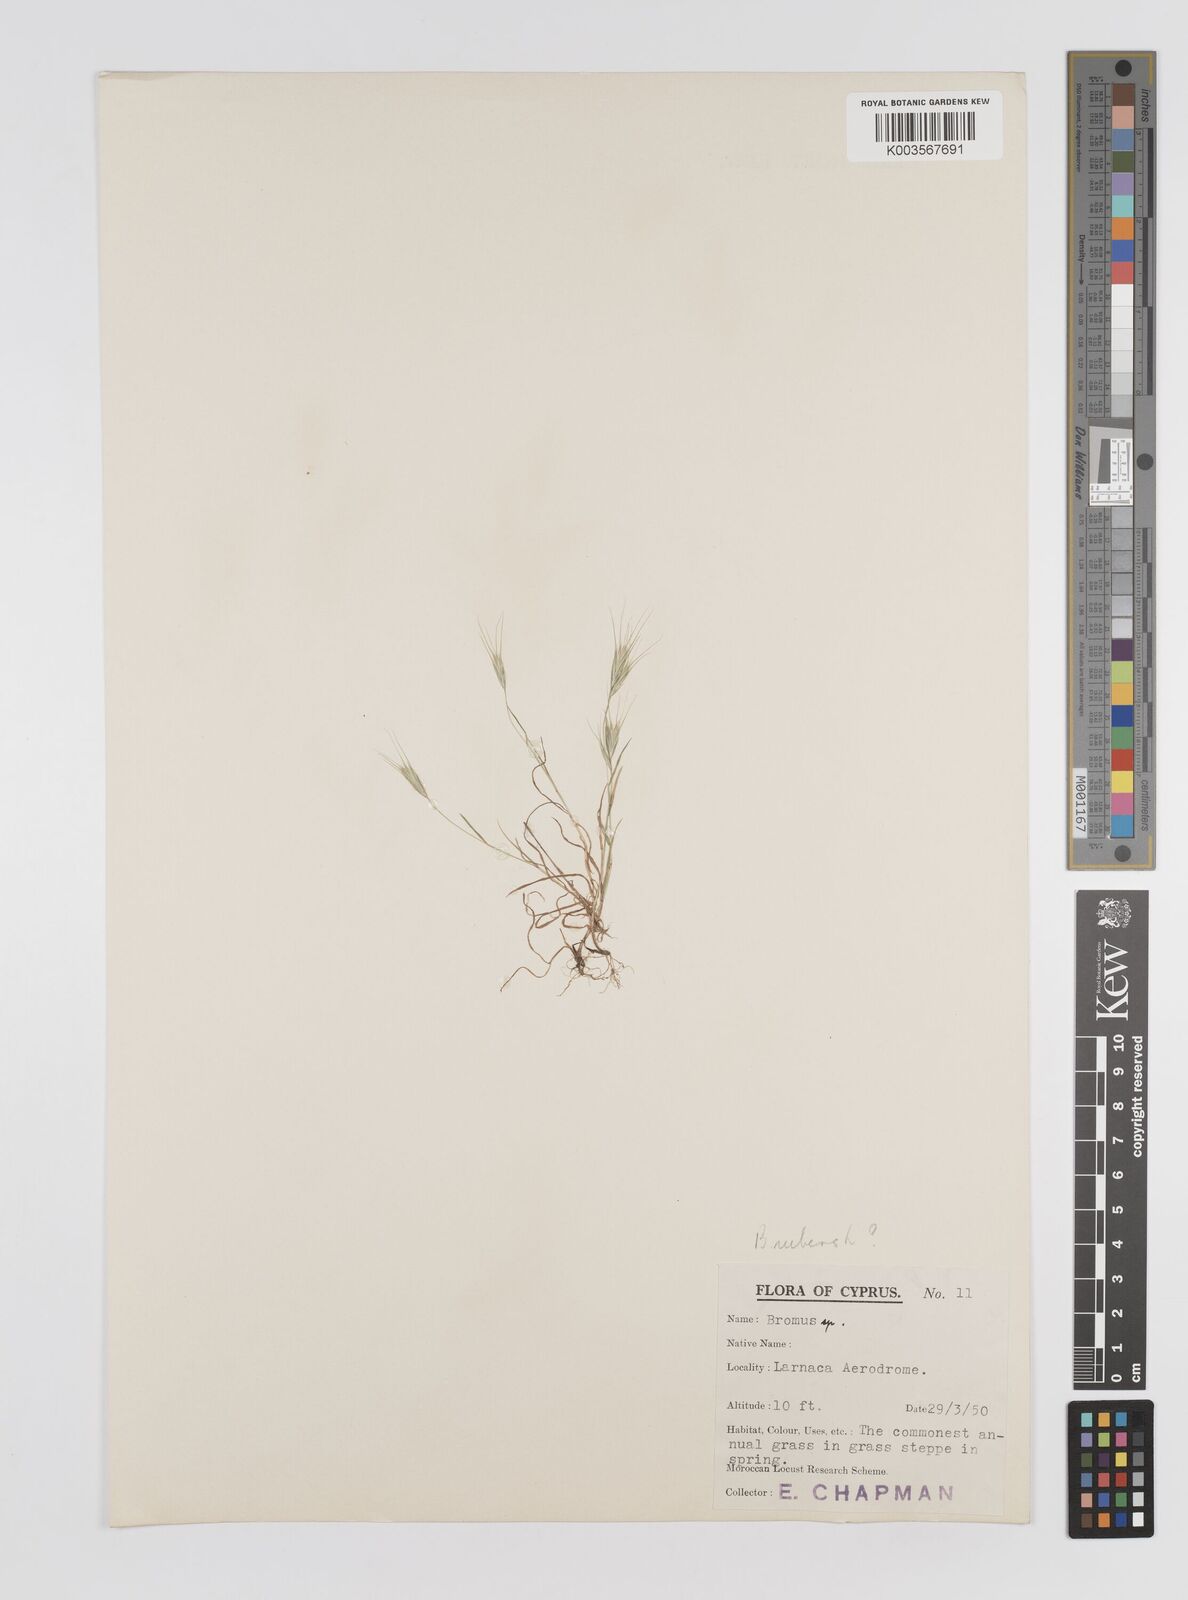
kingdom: Plantae
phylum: Tracheophyta
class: Liliopsida
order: Poales
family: Poaceae
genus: Bromus
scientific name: Bromus
